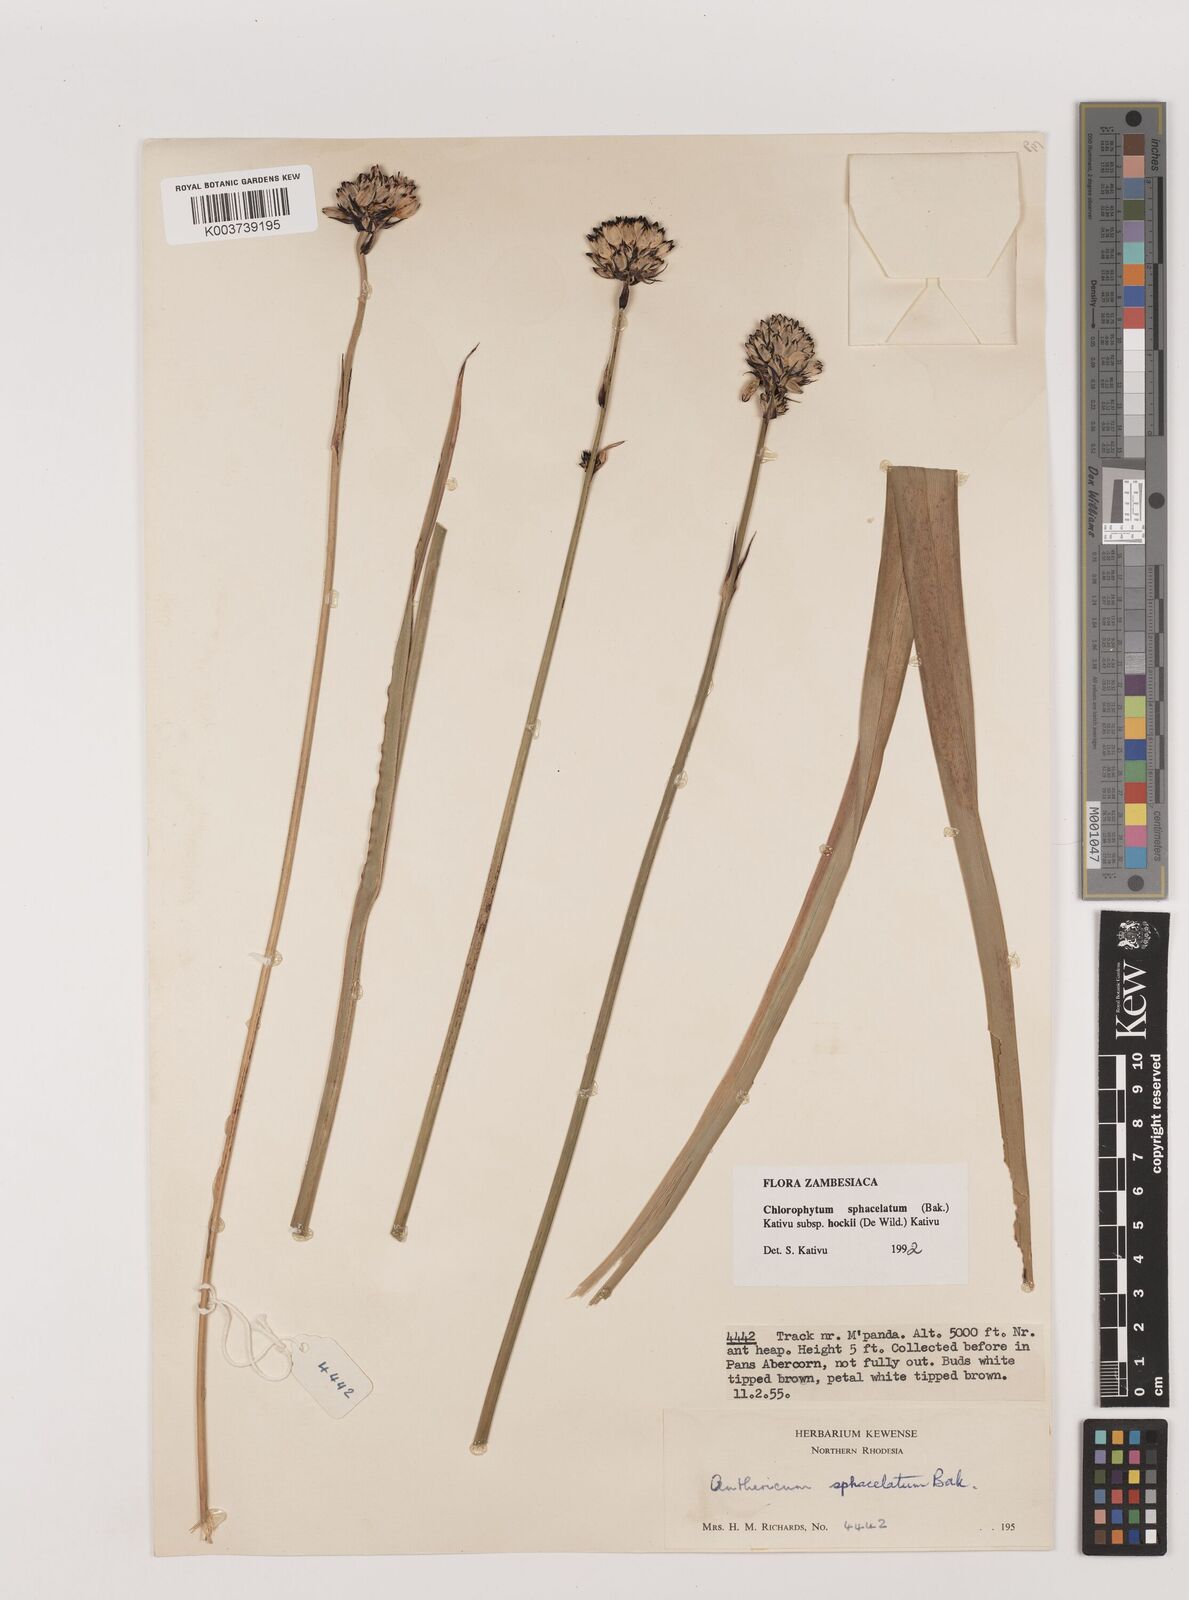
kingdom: Plantae
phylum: Tracheophyta
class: Liliopsida
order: Asparagales
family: Asparagaceae
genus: Chlorophytum
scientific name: Chlorophytum sphacelatum
